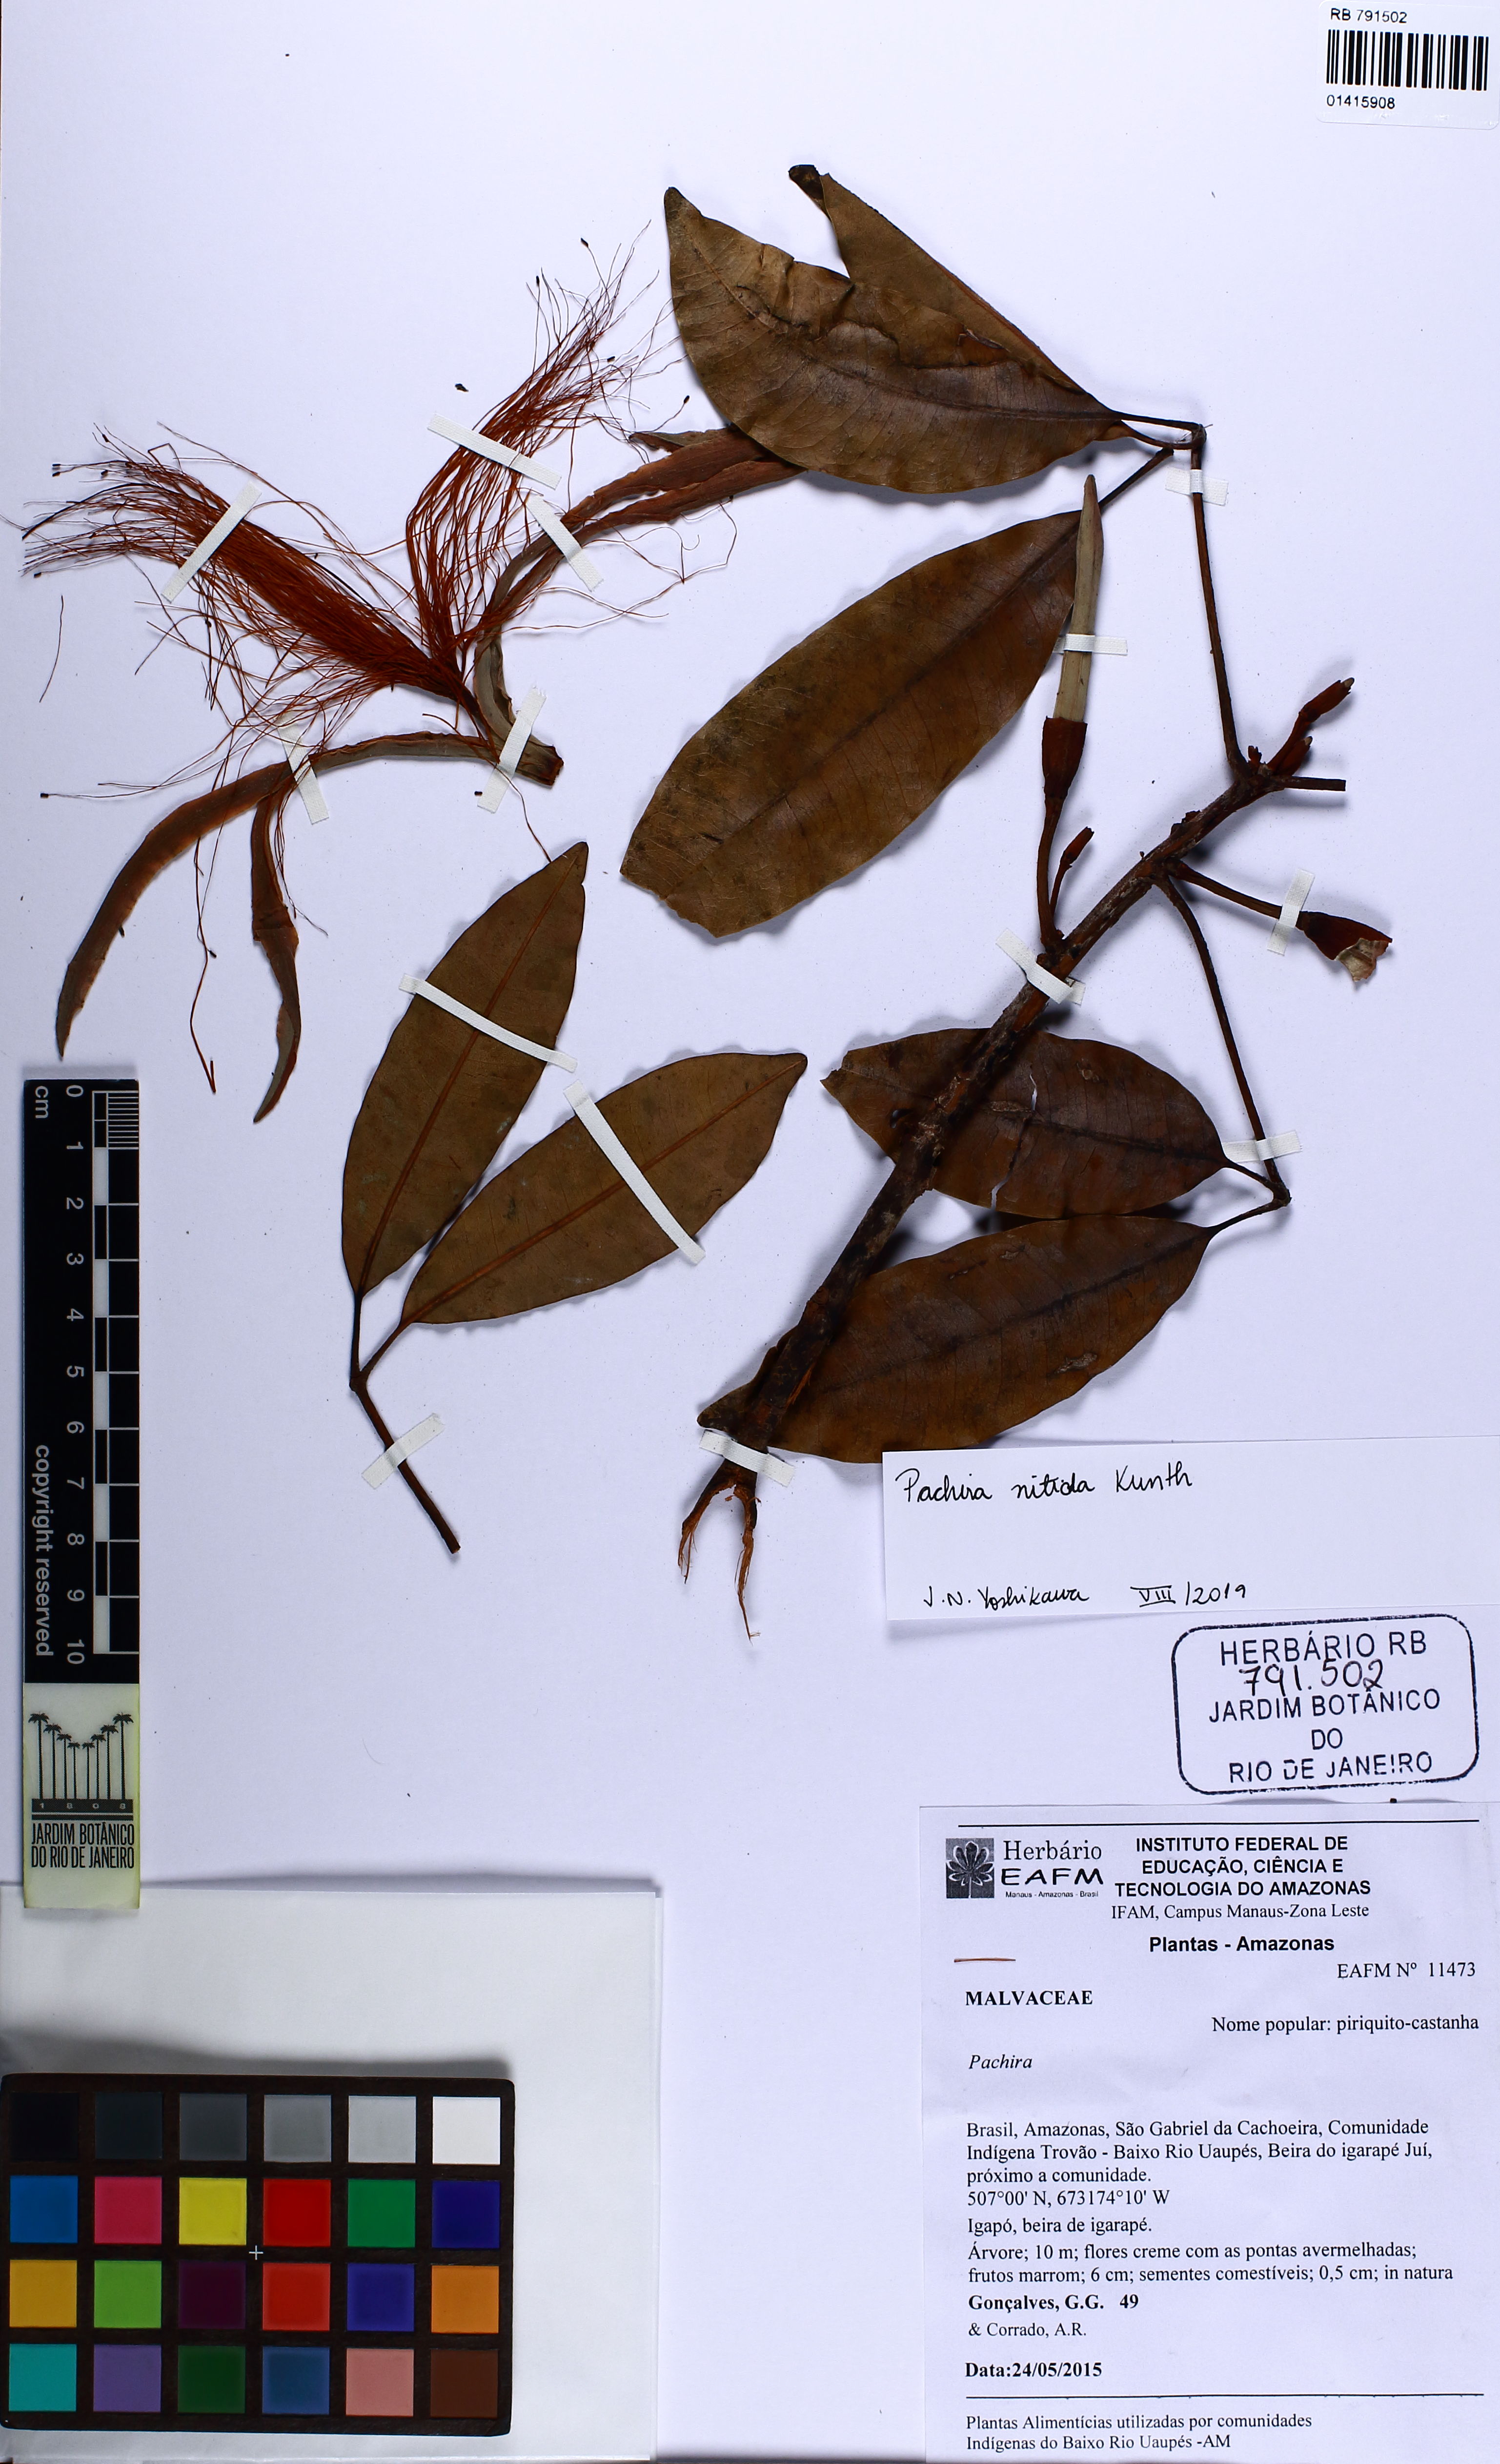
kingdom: Plantae
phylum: Tracheophyta
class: Magnoliopsida
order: Malvales
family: Malvaceae
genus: Pachira
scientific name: Pachira nitida
